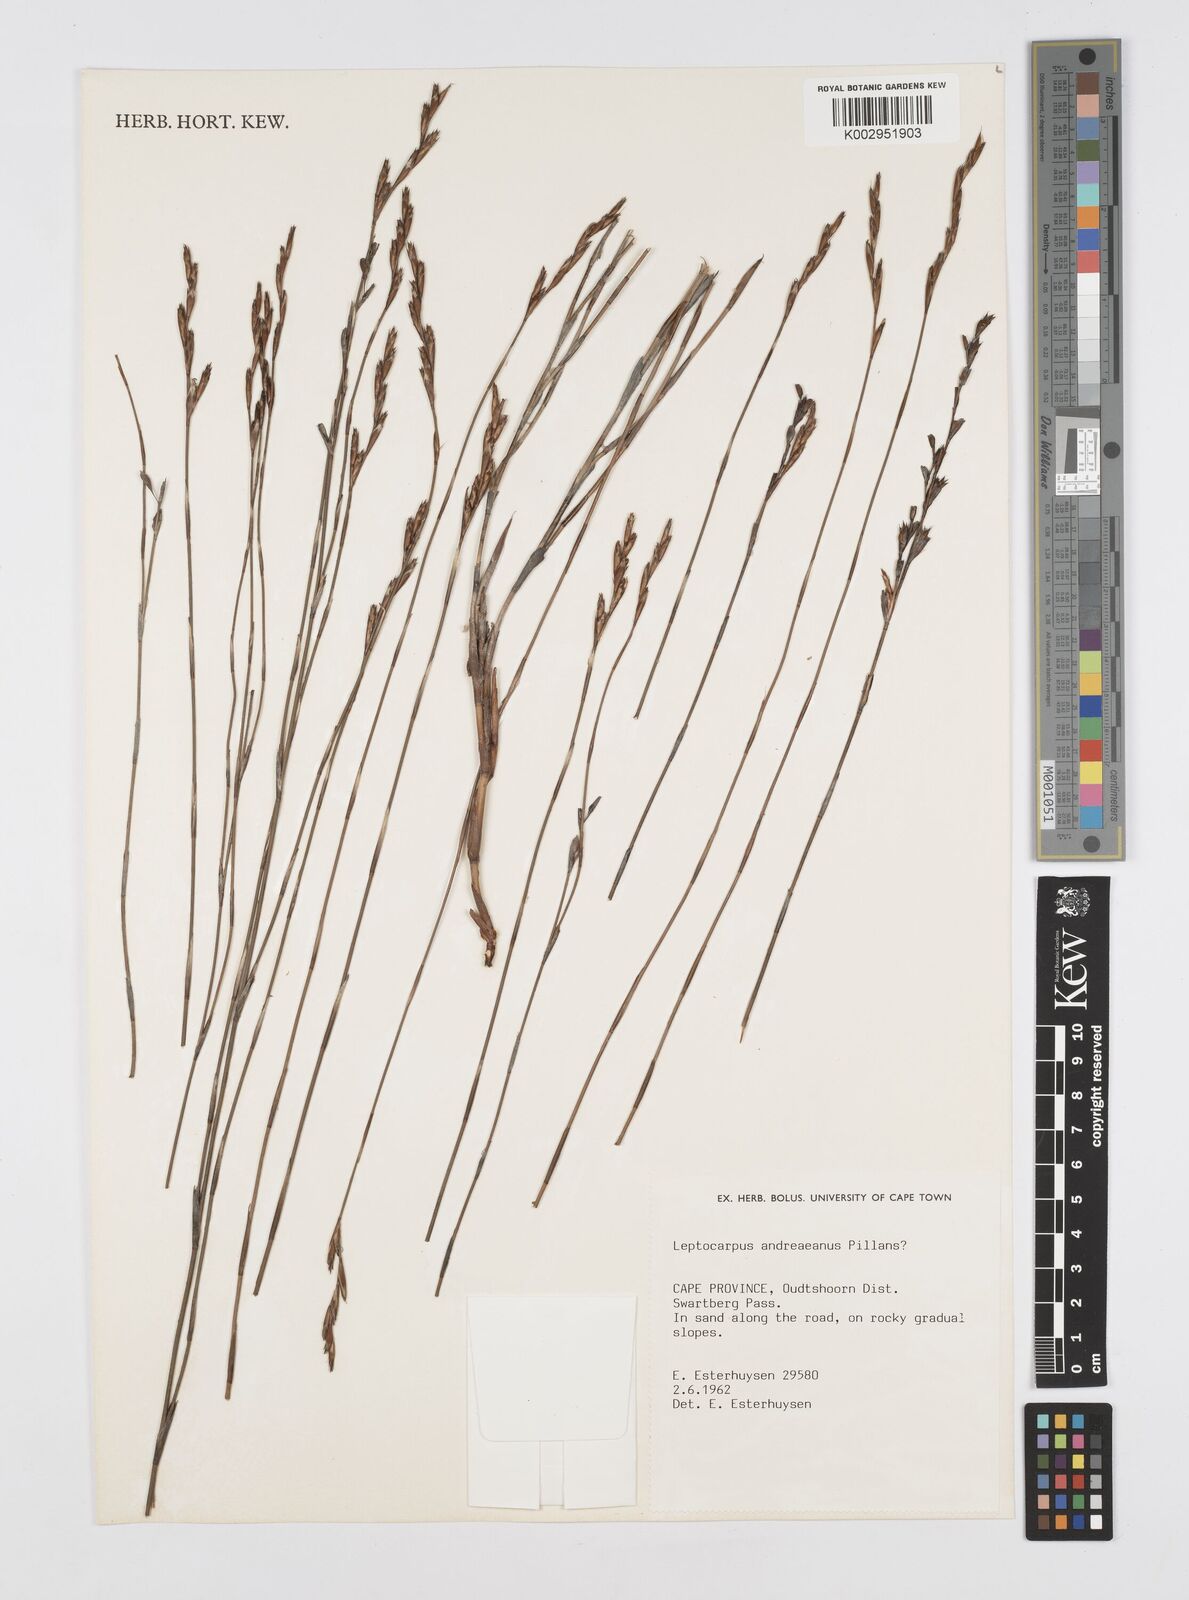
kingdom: Plantae
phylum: Tracheophyta
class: Liliopsida
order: Poales
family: Restionaceae
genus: Restio
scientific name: Restio andreaeanus
